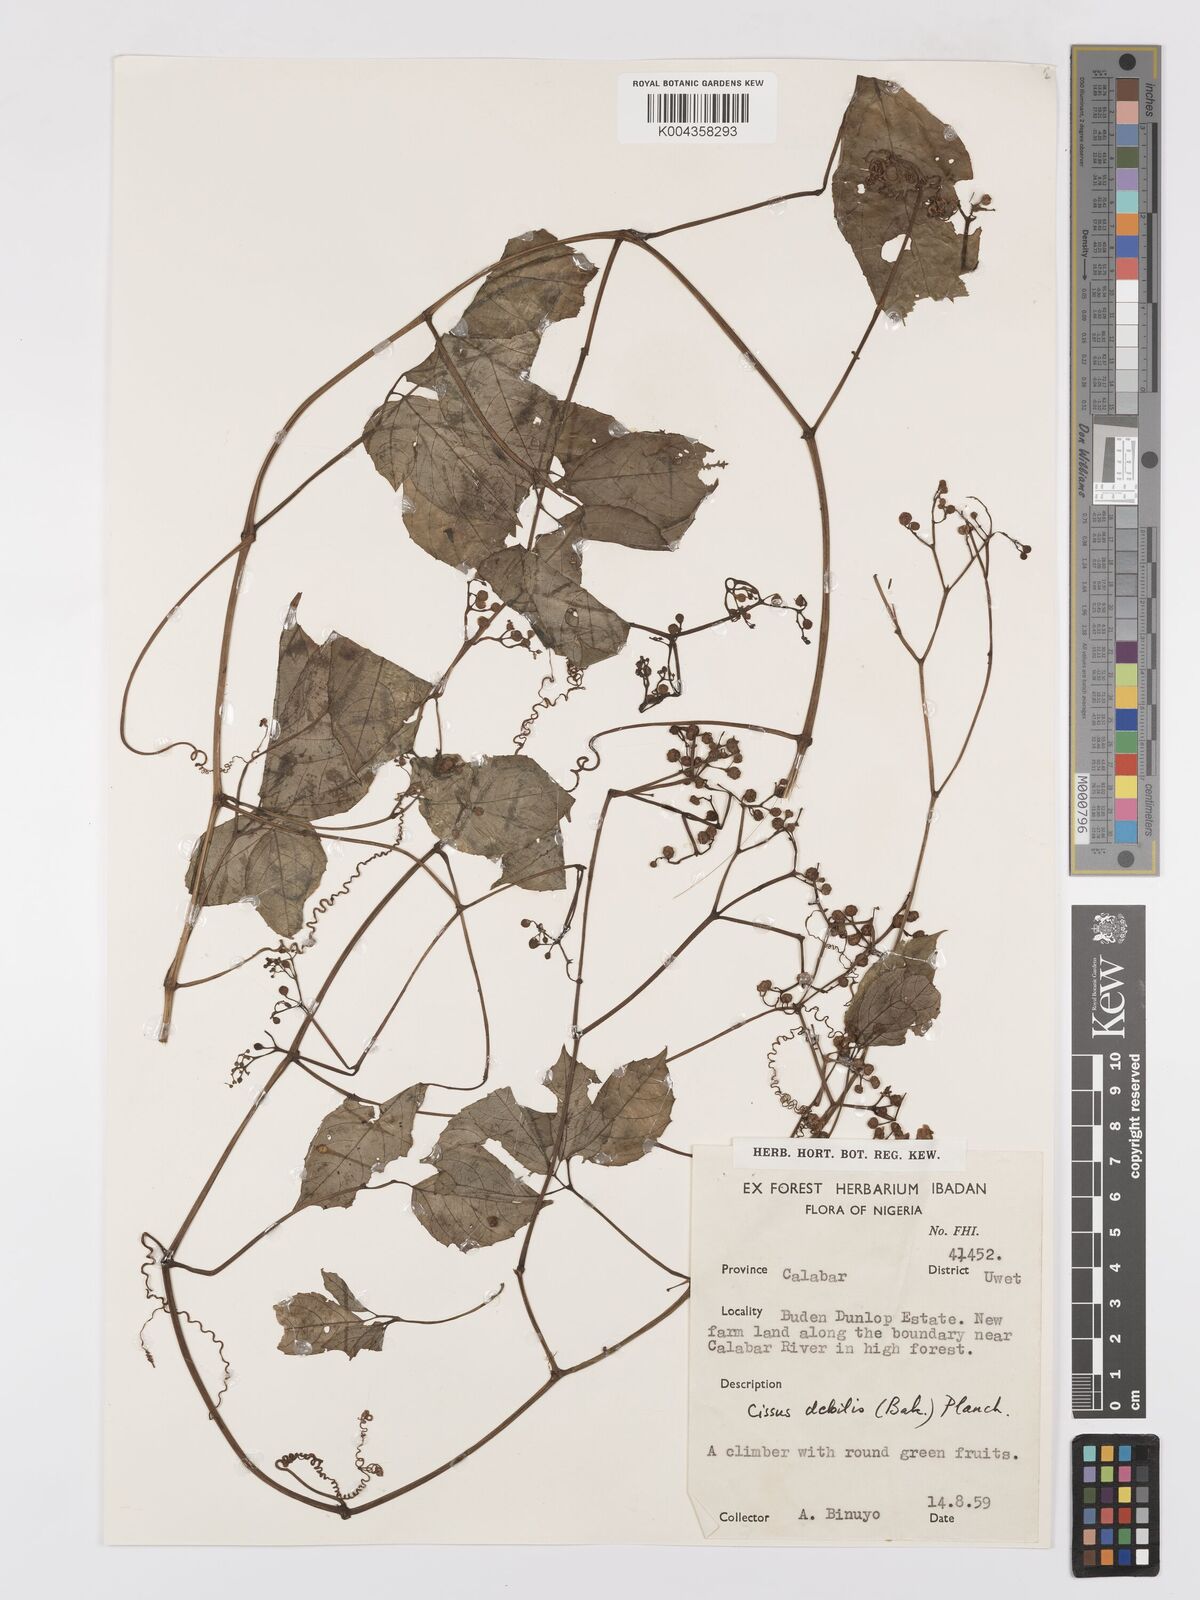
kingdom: Plantae
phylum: Tracheophyta
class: Magnoliopsida
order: Vitales
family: Vitaceae
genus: Afrocayratia
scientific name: Afrocayratia debilis
